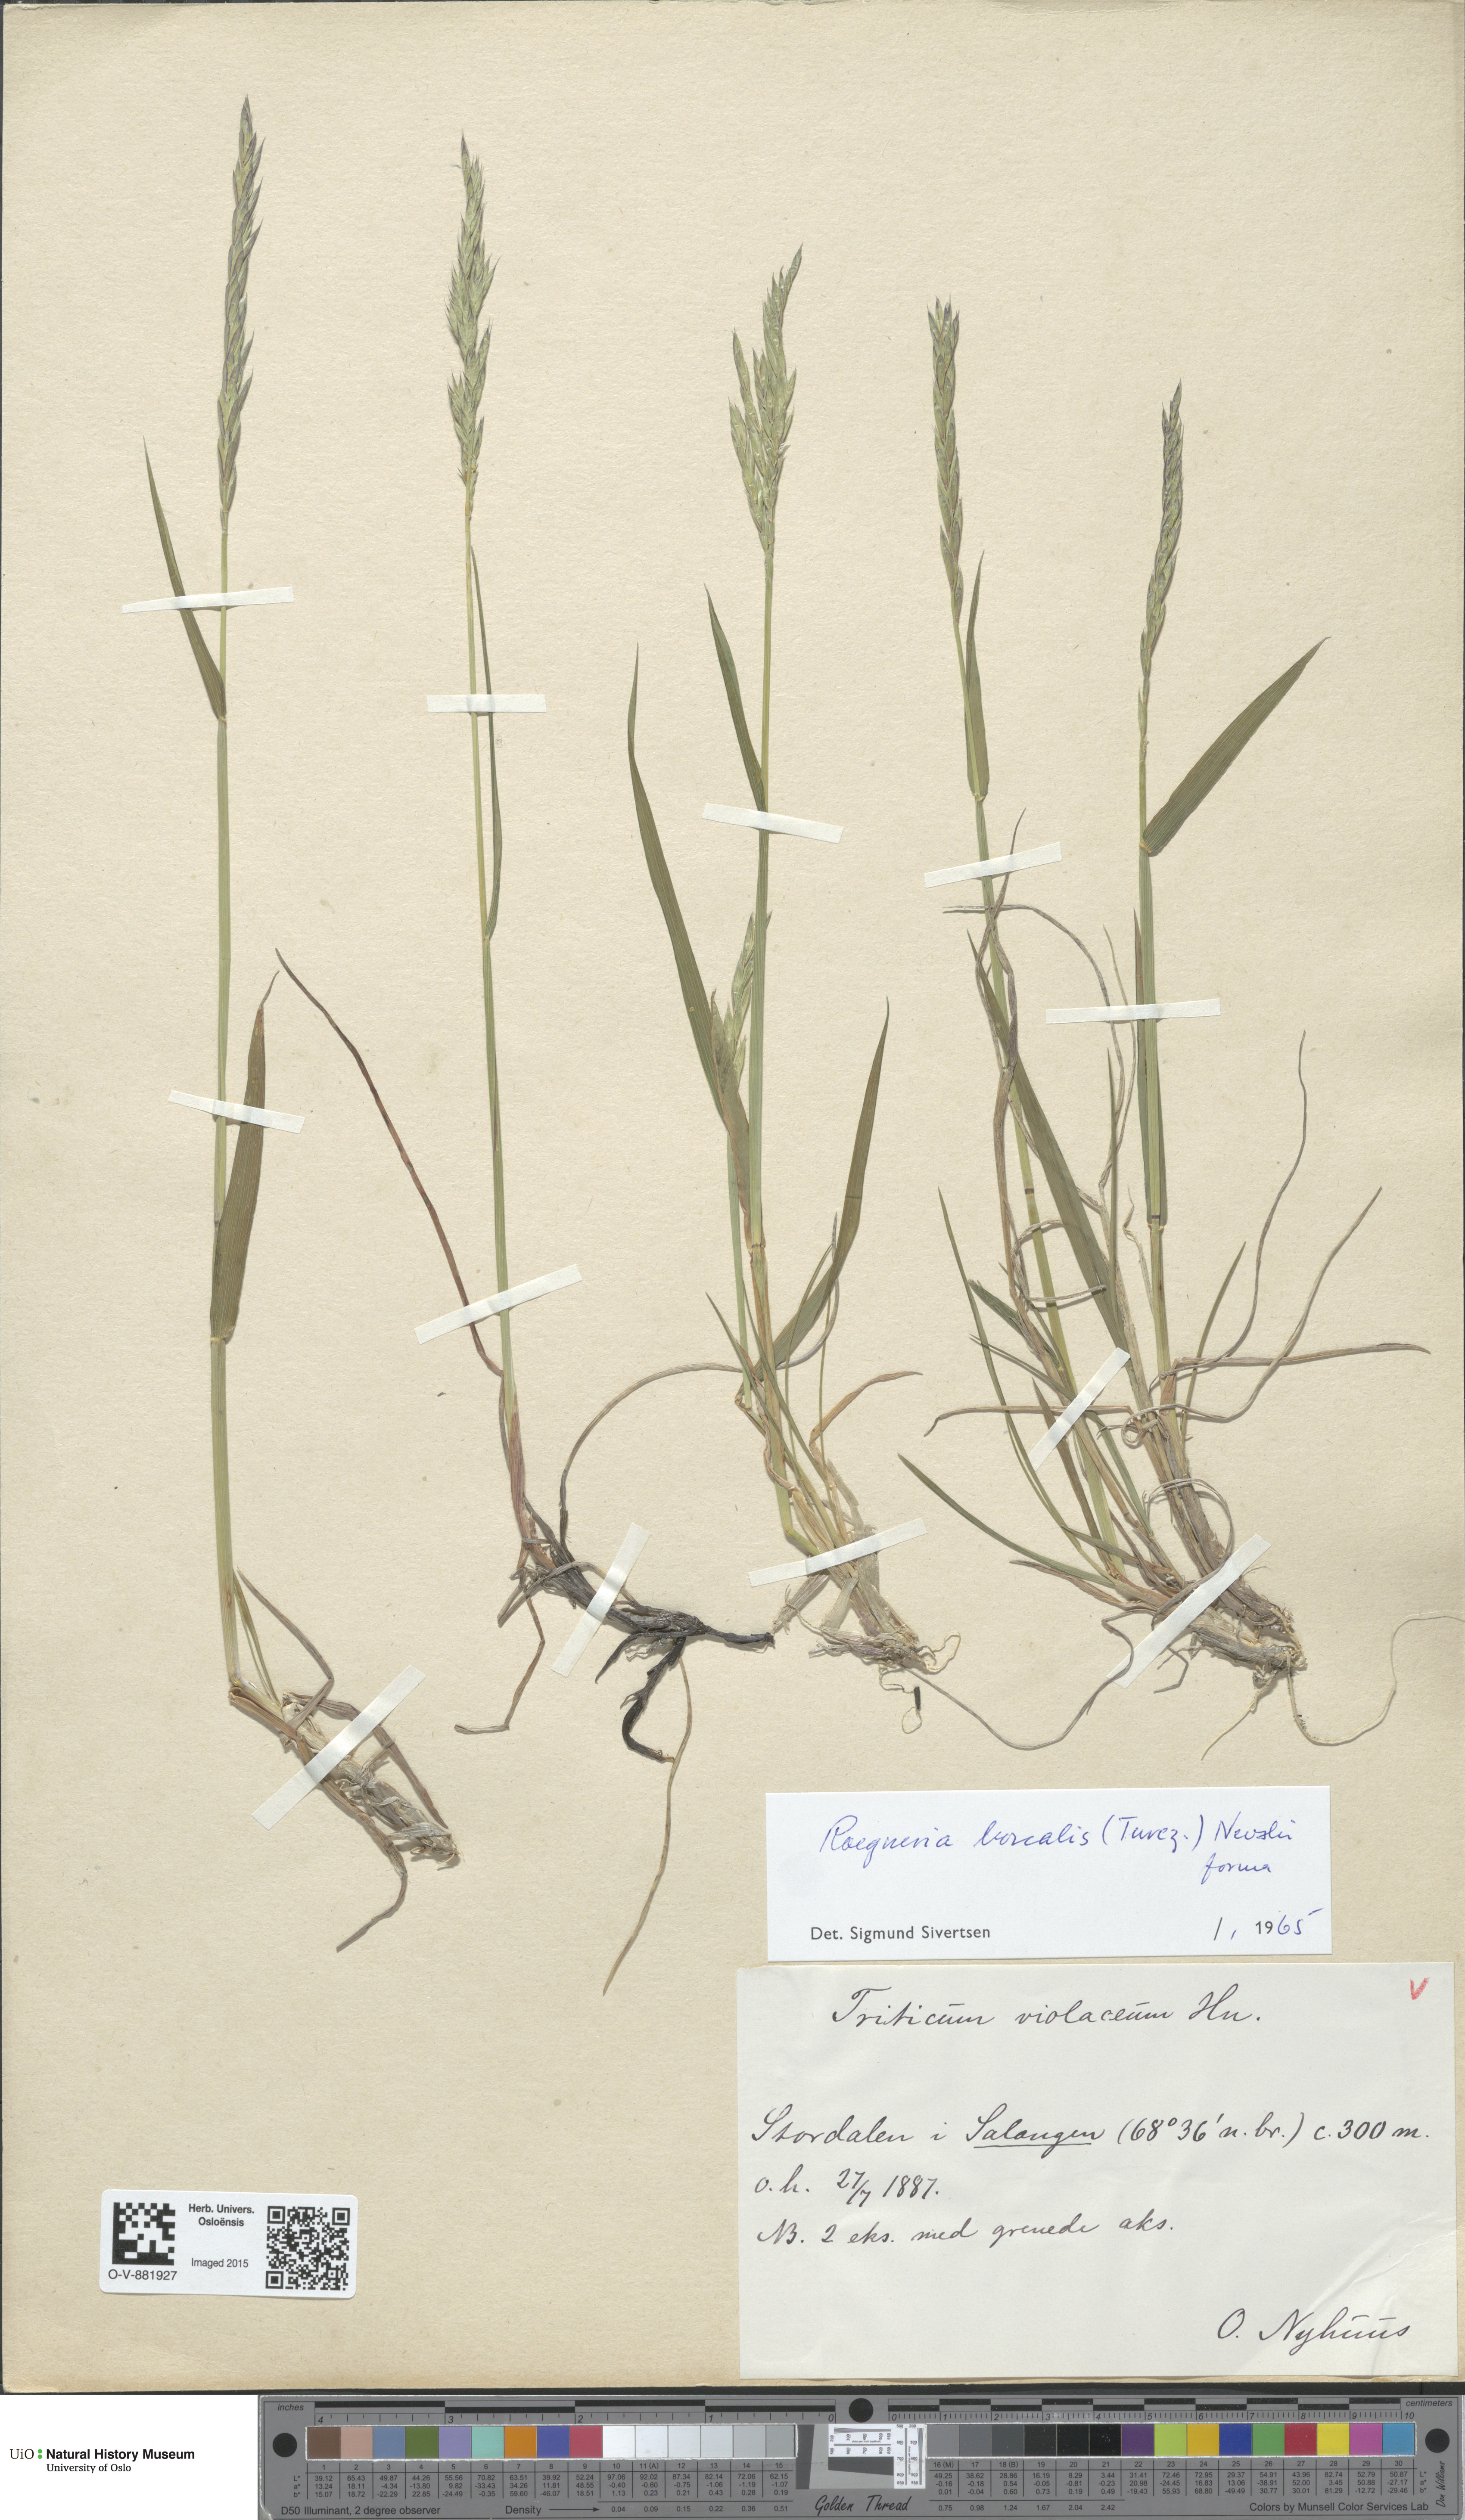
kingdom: Plantae
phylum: Tracheophyta
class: Liliopsida
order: Poales
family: Poaceae
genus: Elymus
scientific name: Elymus macrourus
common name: Northern wheatgrass
